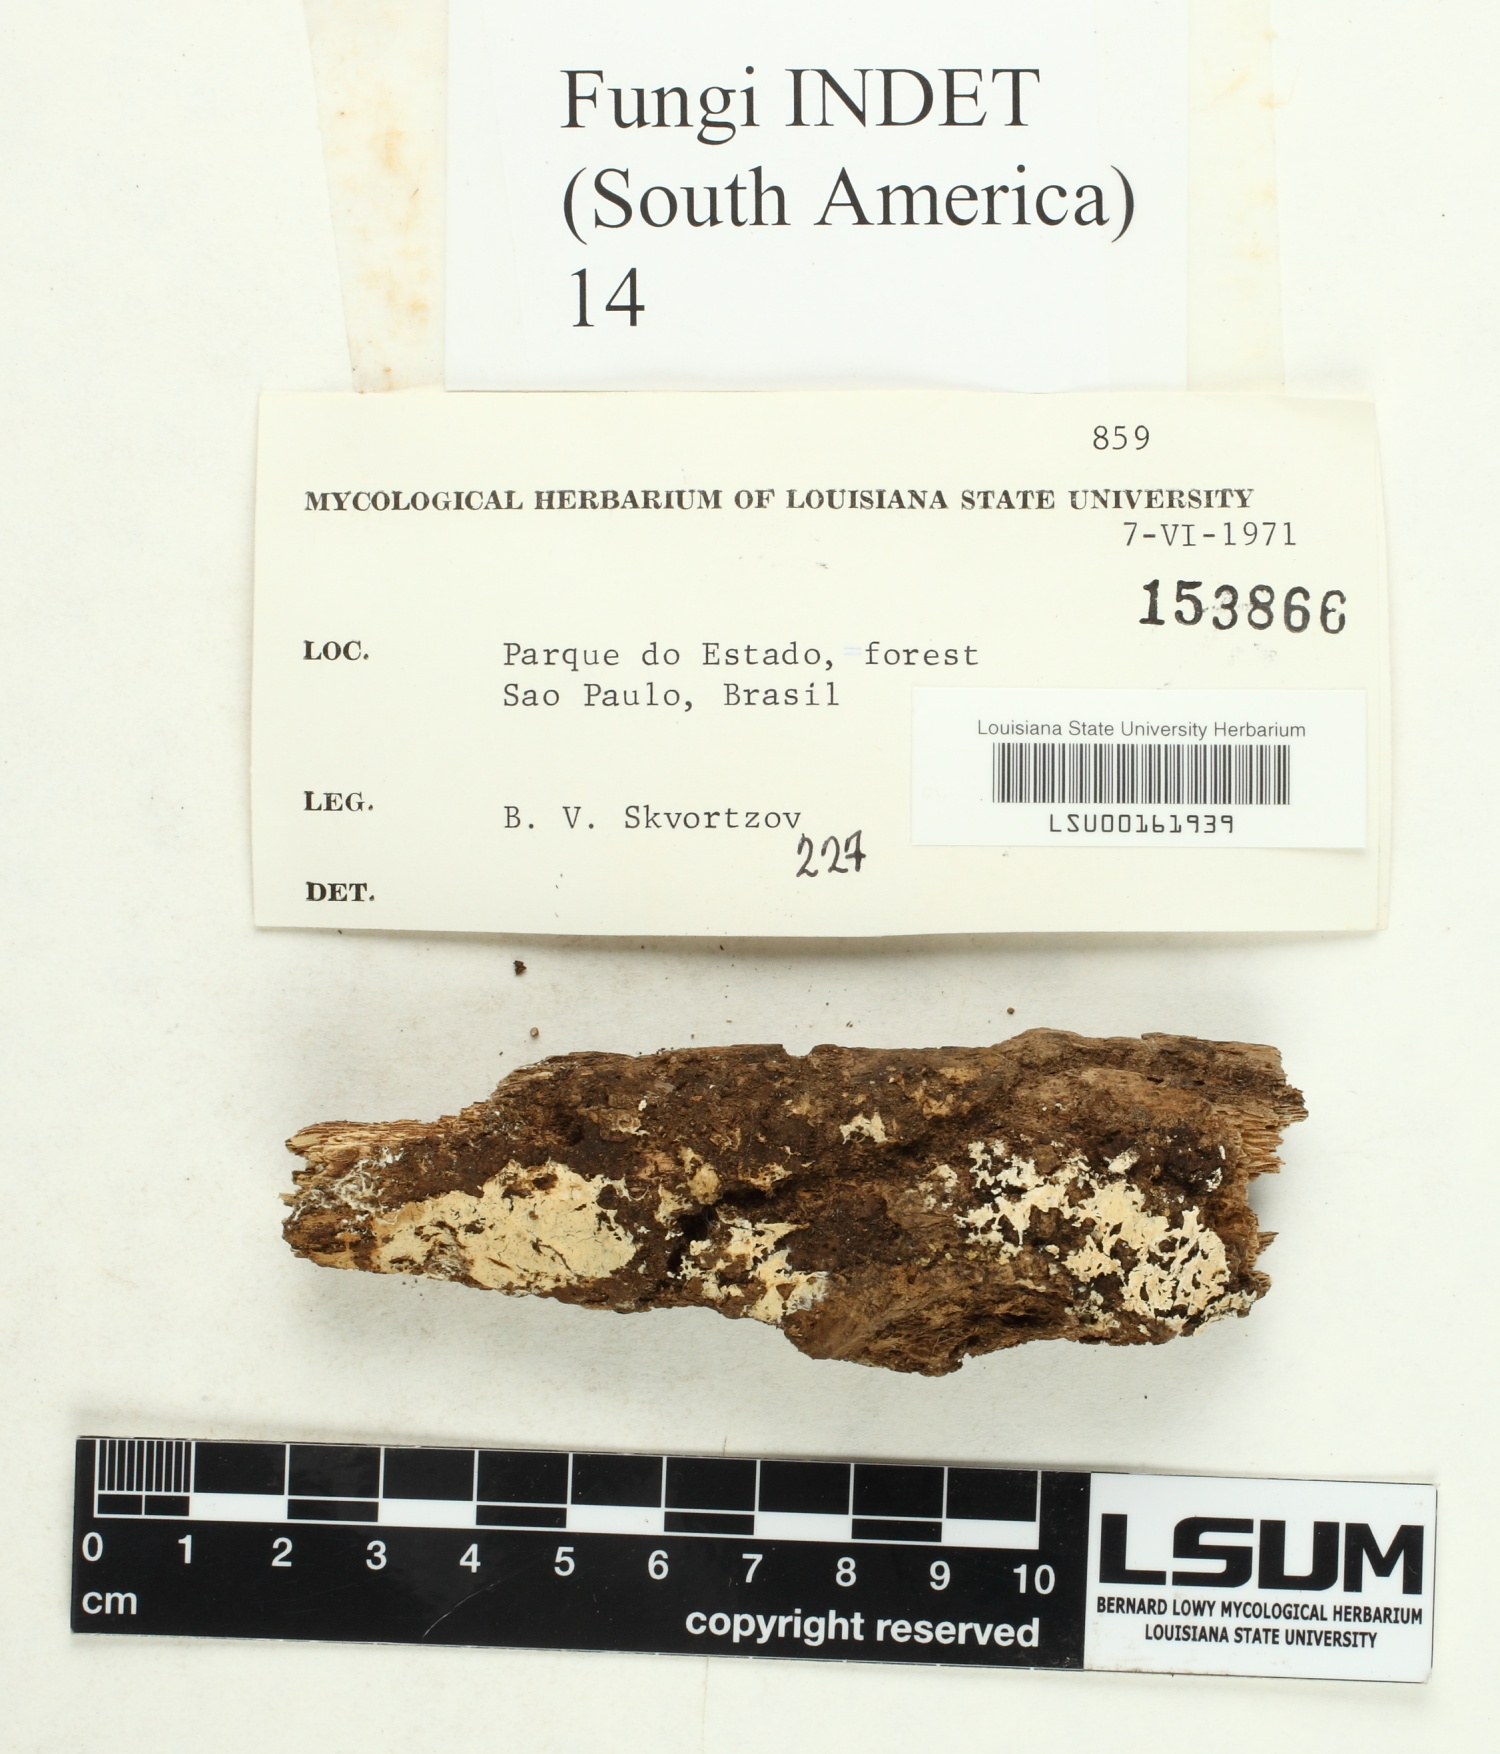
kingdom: Fungi
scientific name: Fungi
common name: Fungi
